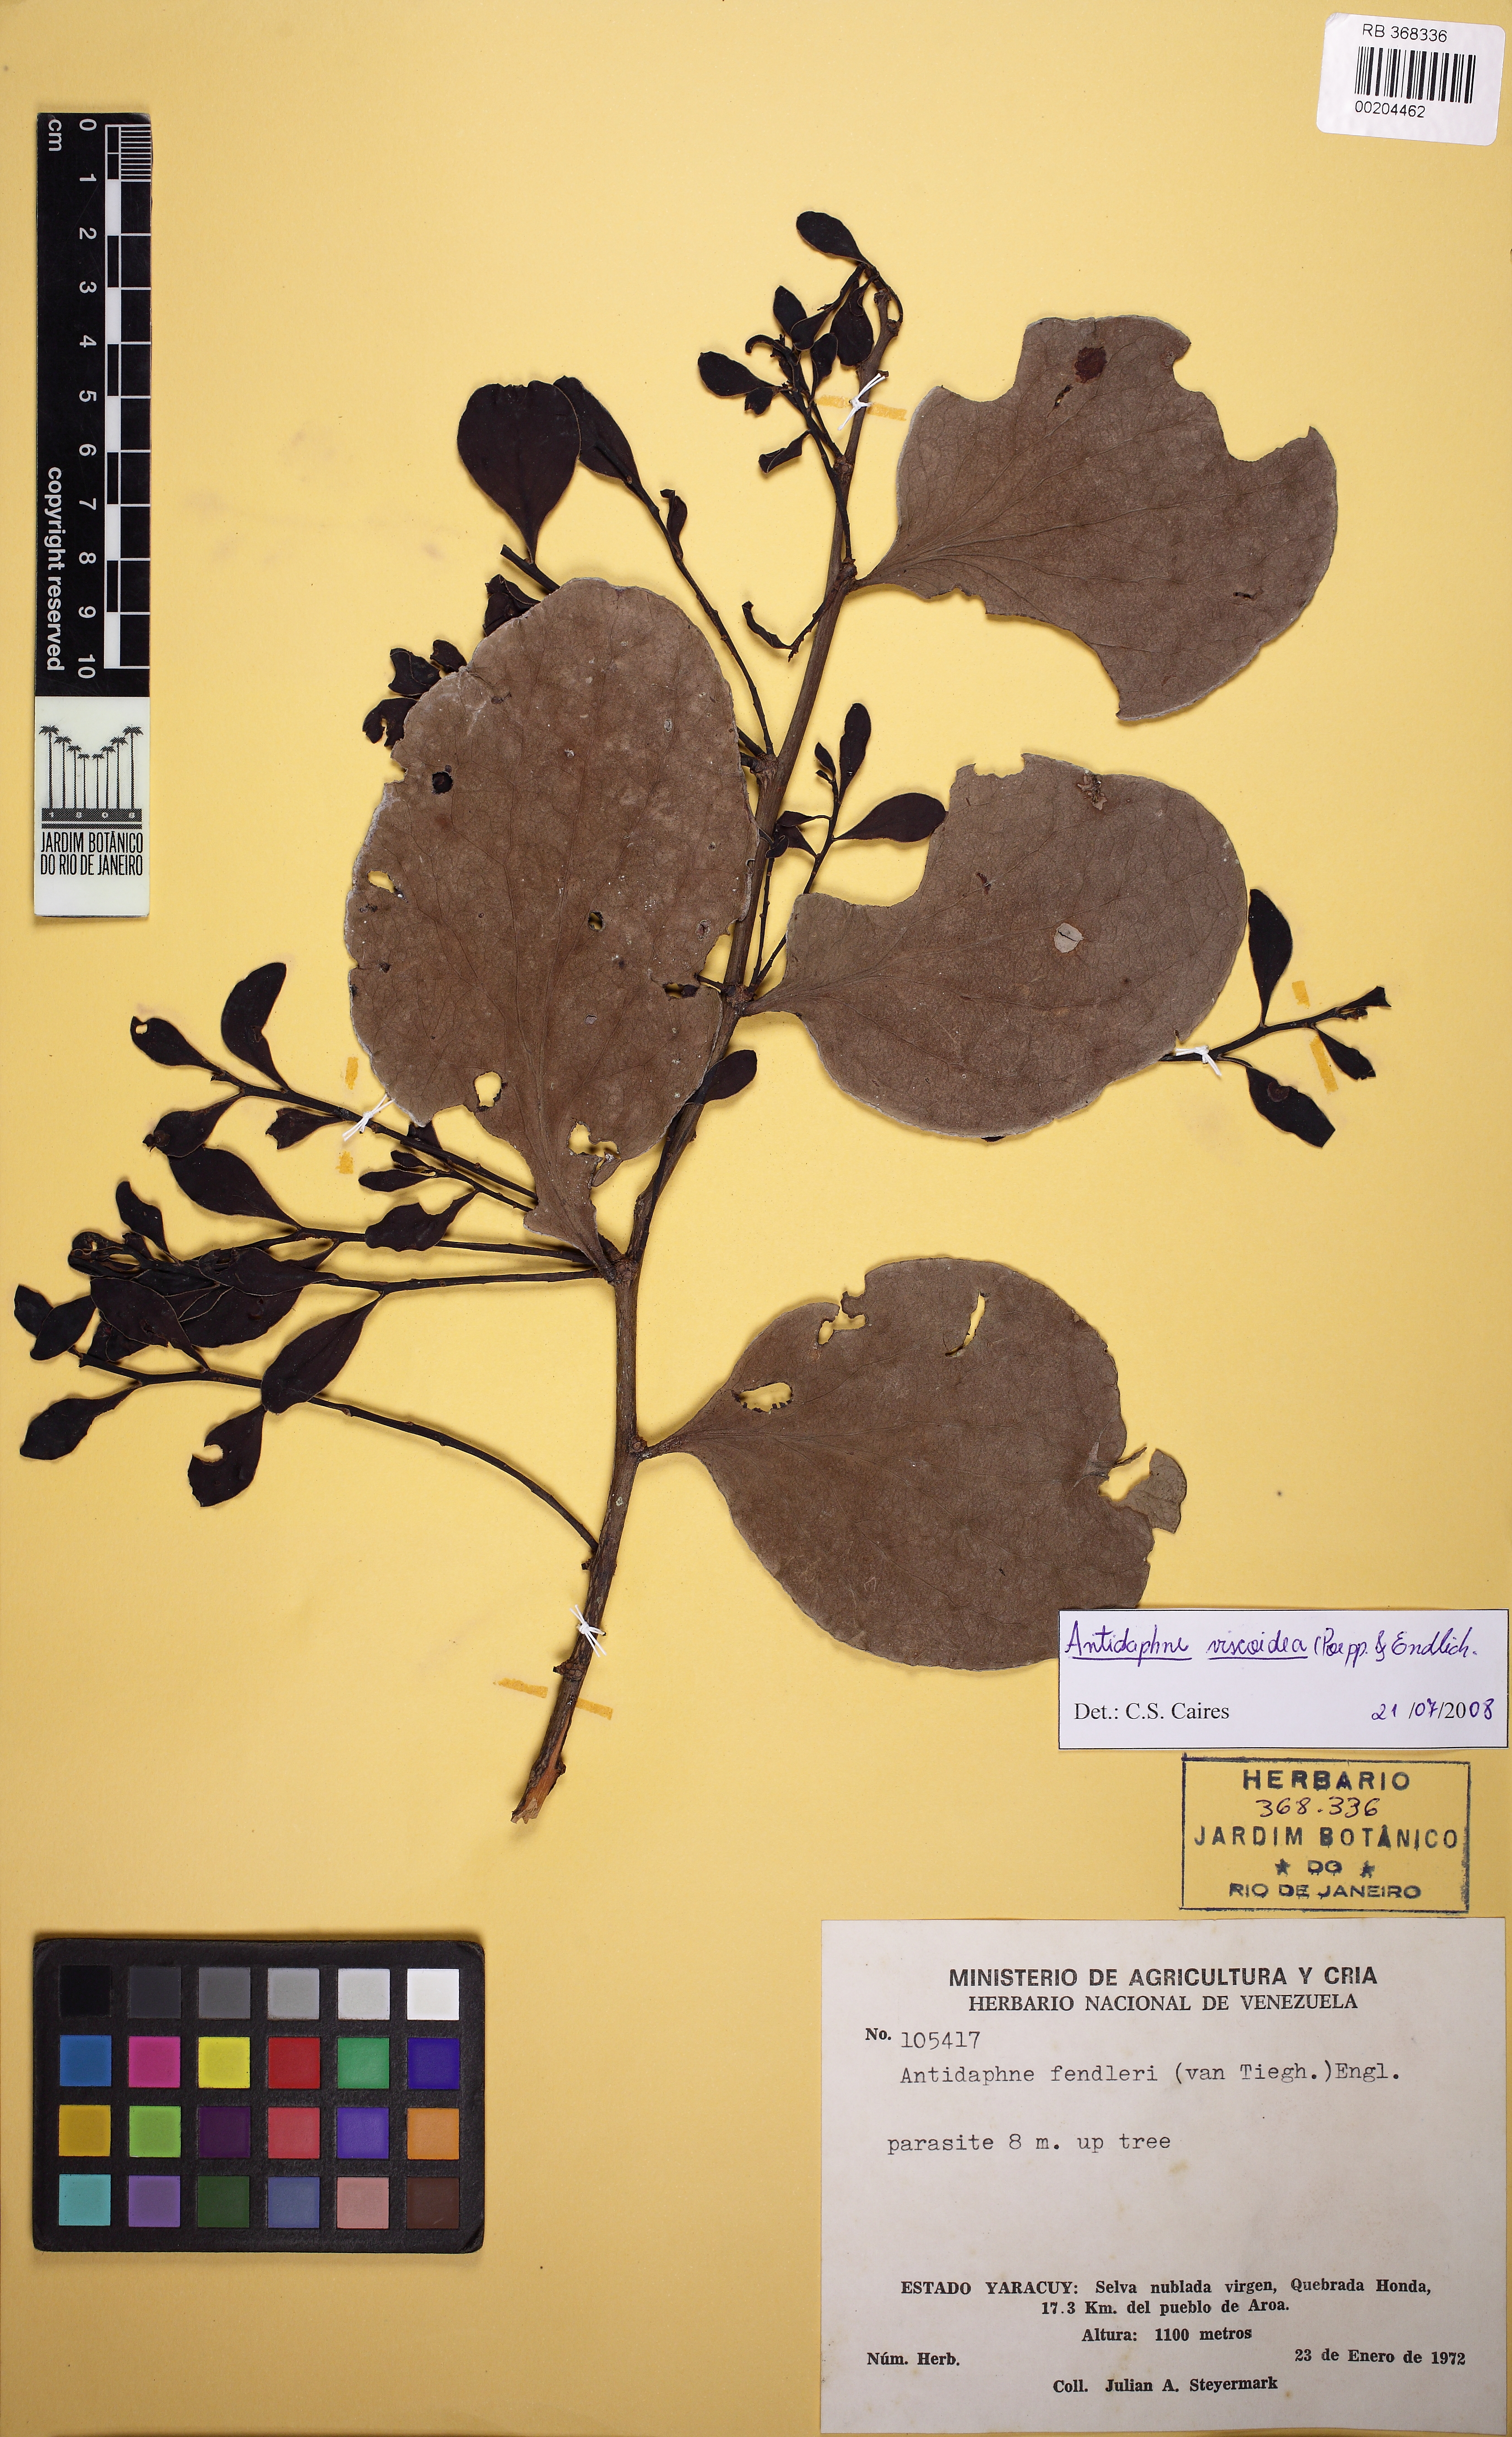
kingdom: Plantae
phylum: Tracheophyta
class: Magnoliopsida
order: Santalales
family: Santalaceae
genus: Antidaphne
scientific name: Antidaphne viscoidea
